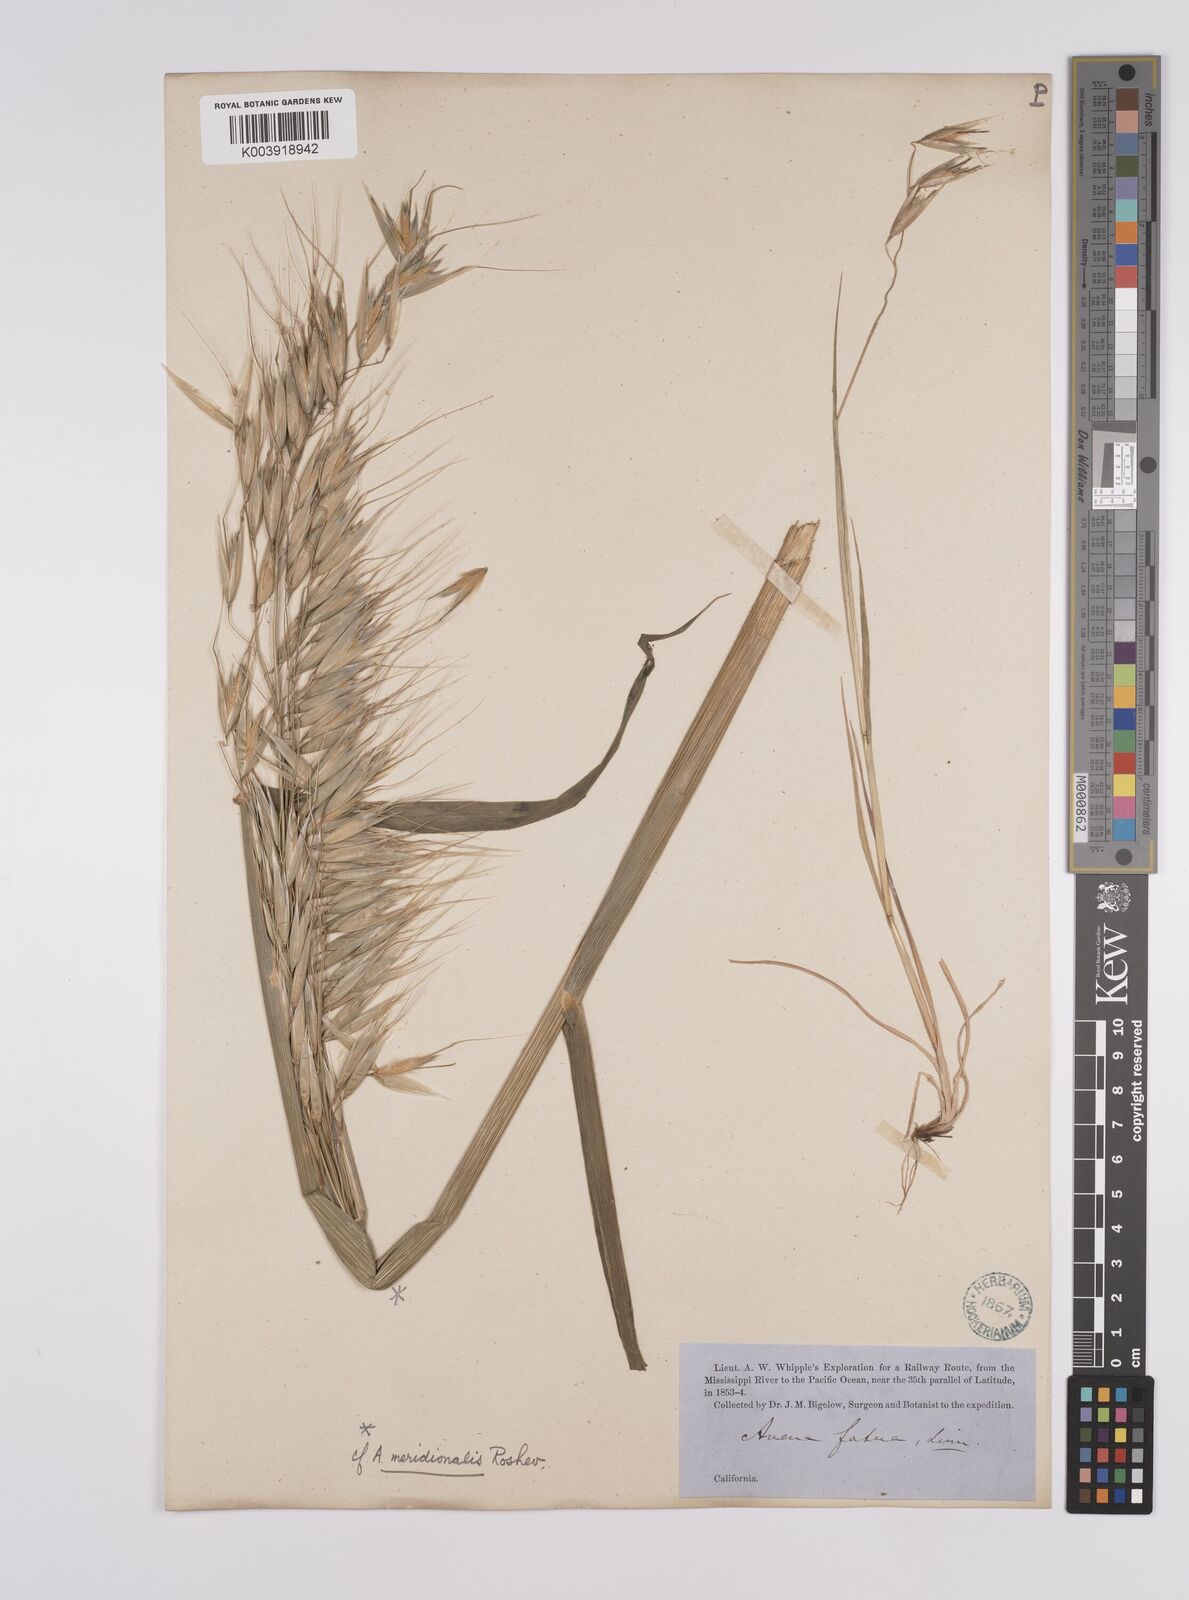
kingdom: Plantae
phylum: Tracheophyta
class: Liliopsida
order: Poales
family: Poaceae
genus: Avena
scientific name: Avena fatua
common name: Wild oat
